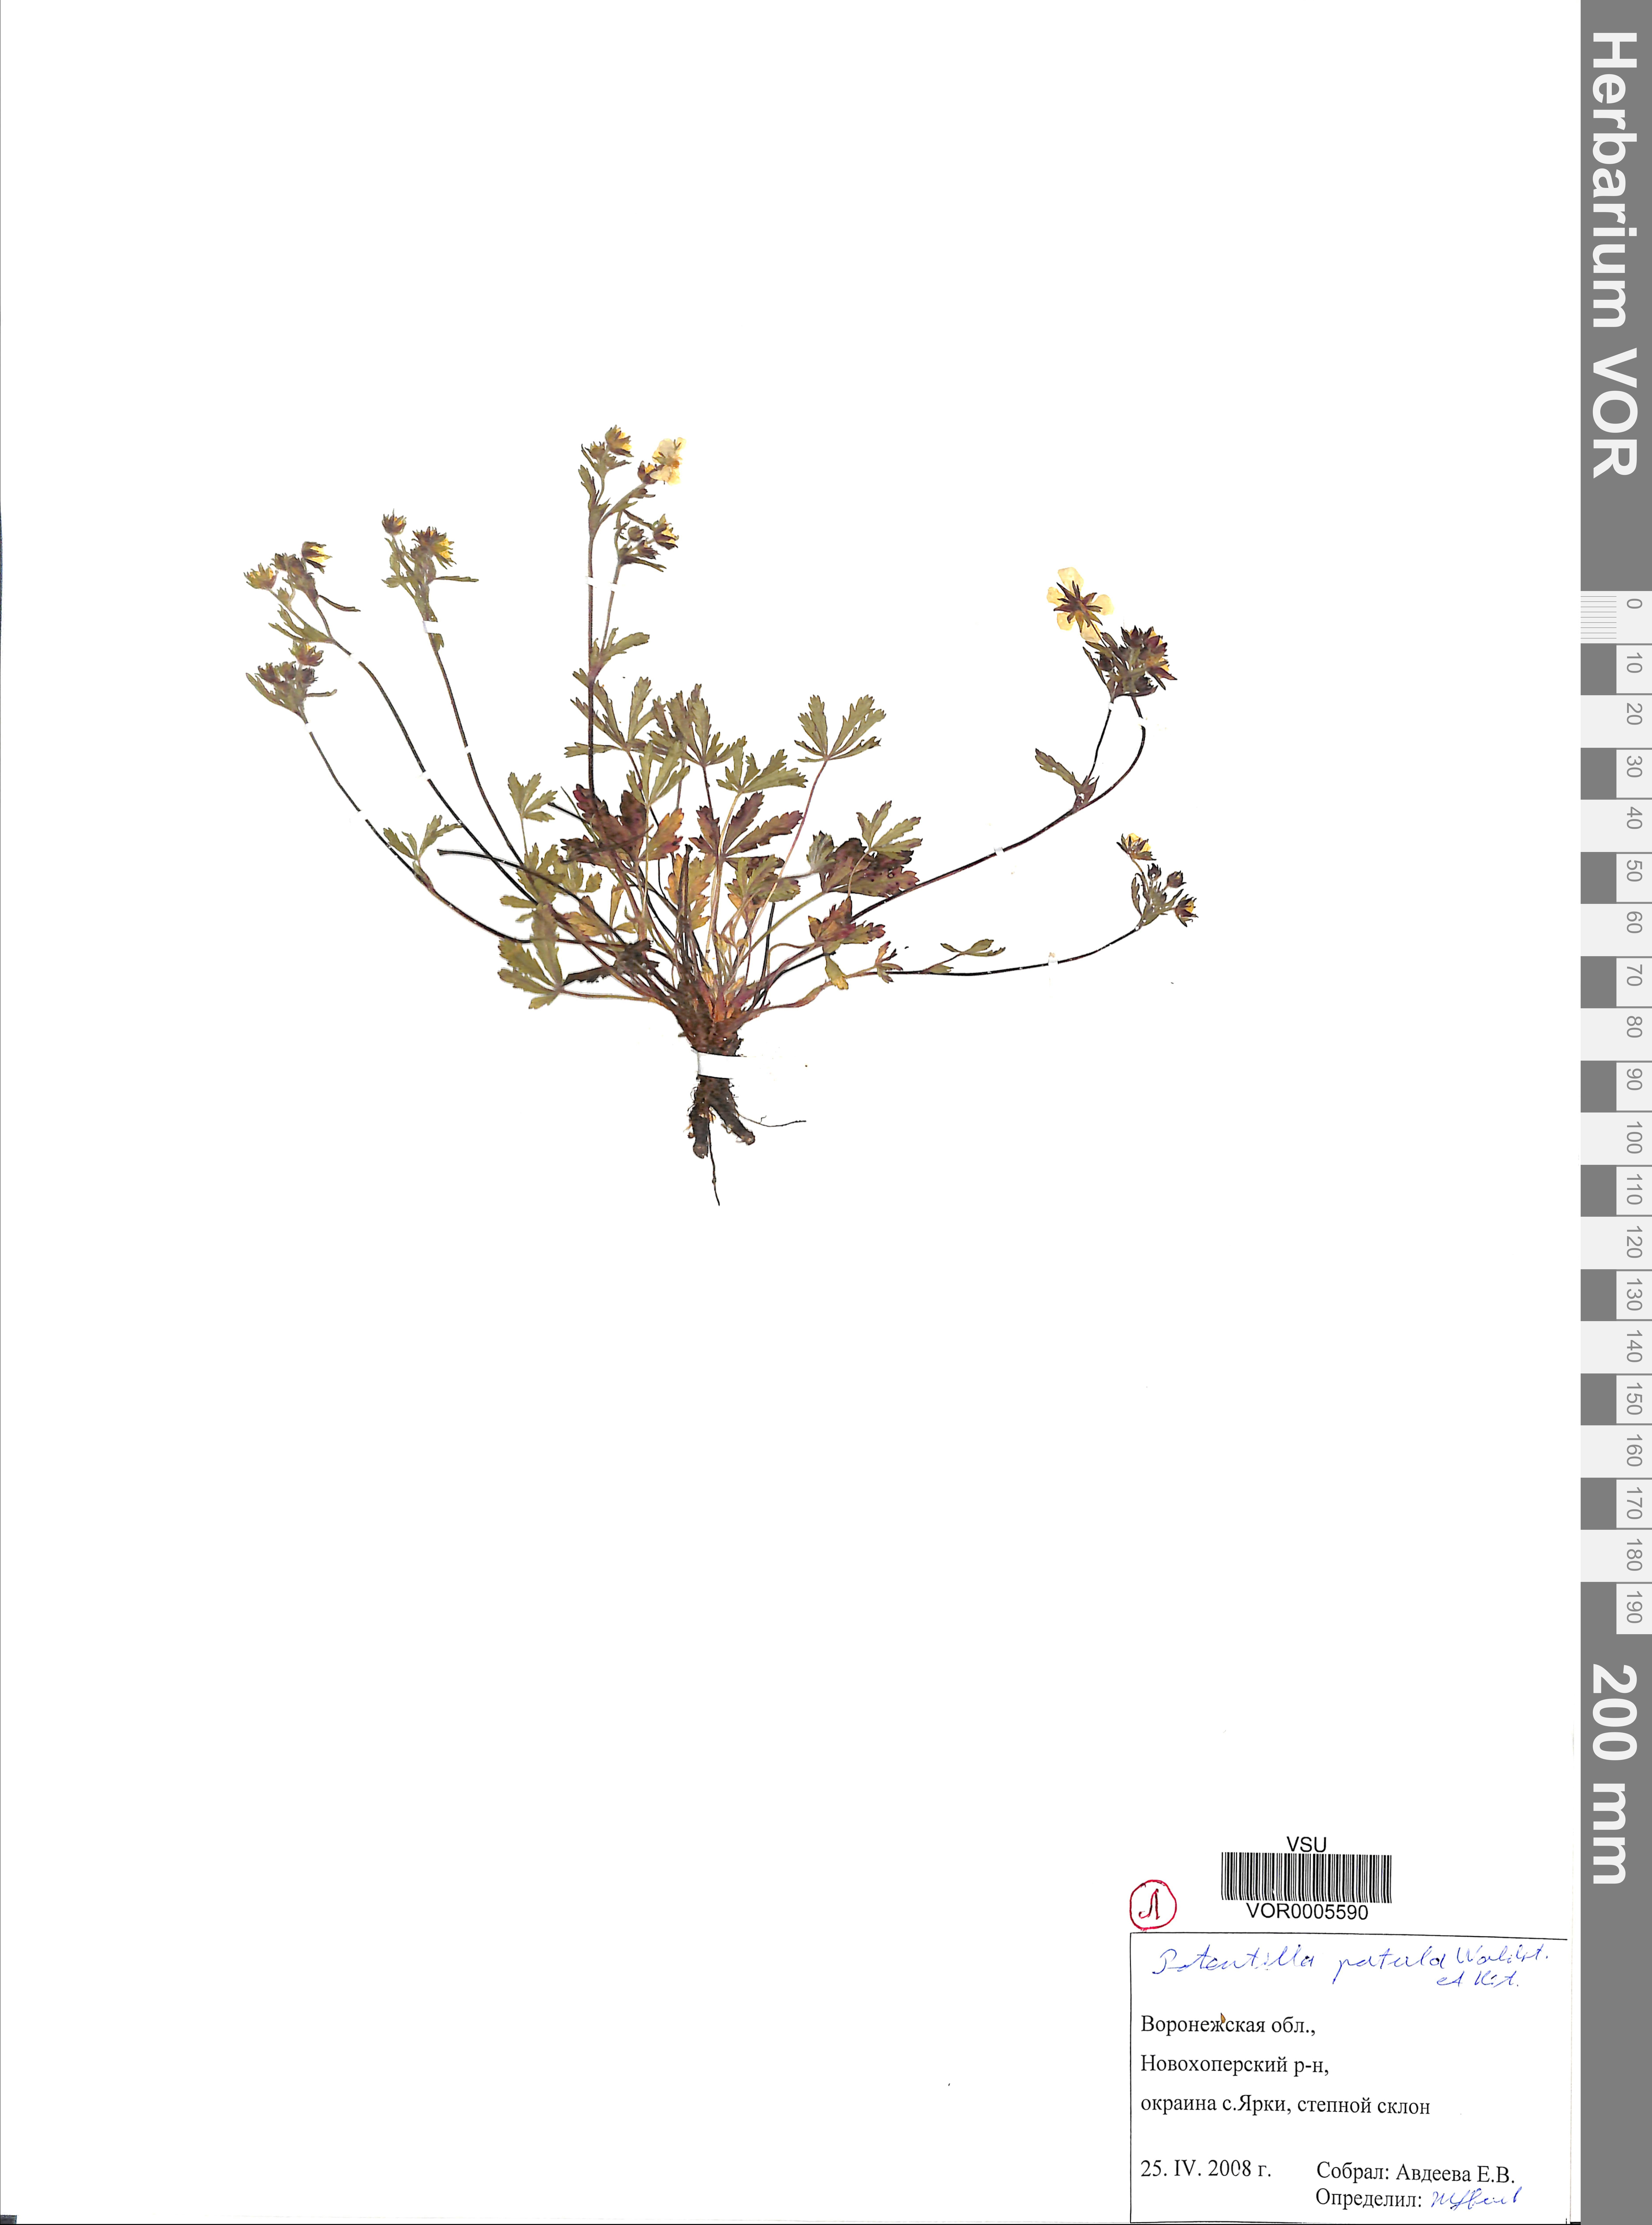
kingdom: Plantae
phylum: Tracheophyta
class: Magnoliopsida
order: Rosales
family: Rosaceae
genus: Potentilla
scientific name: Potentilla patula
